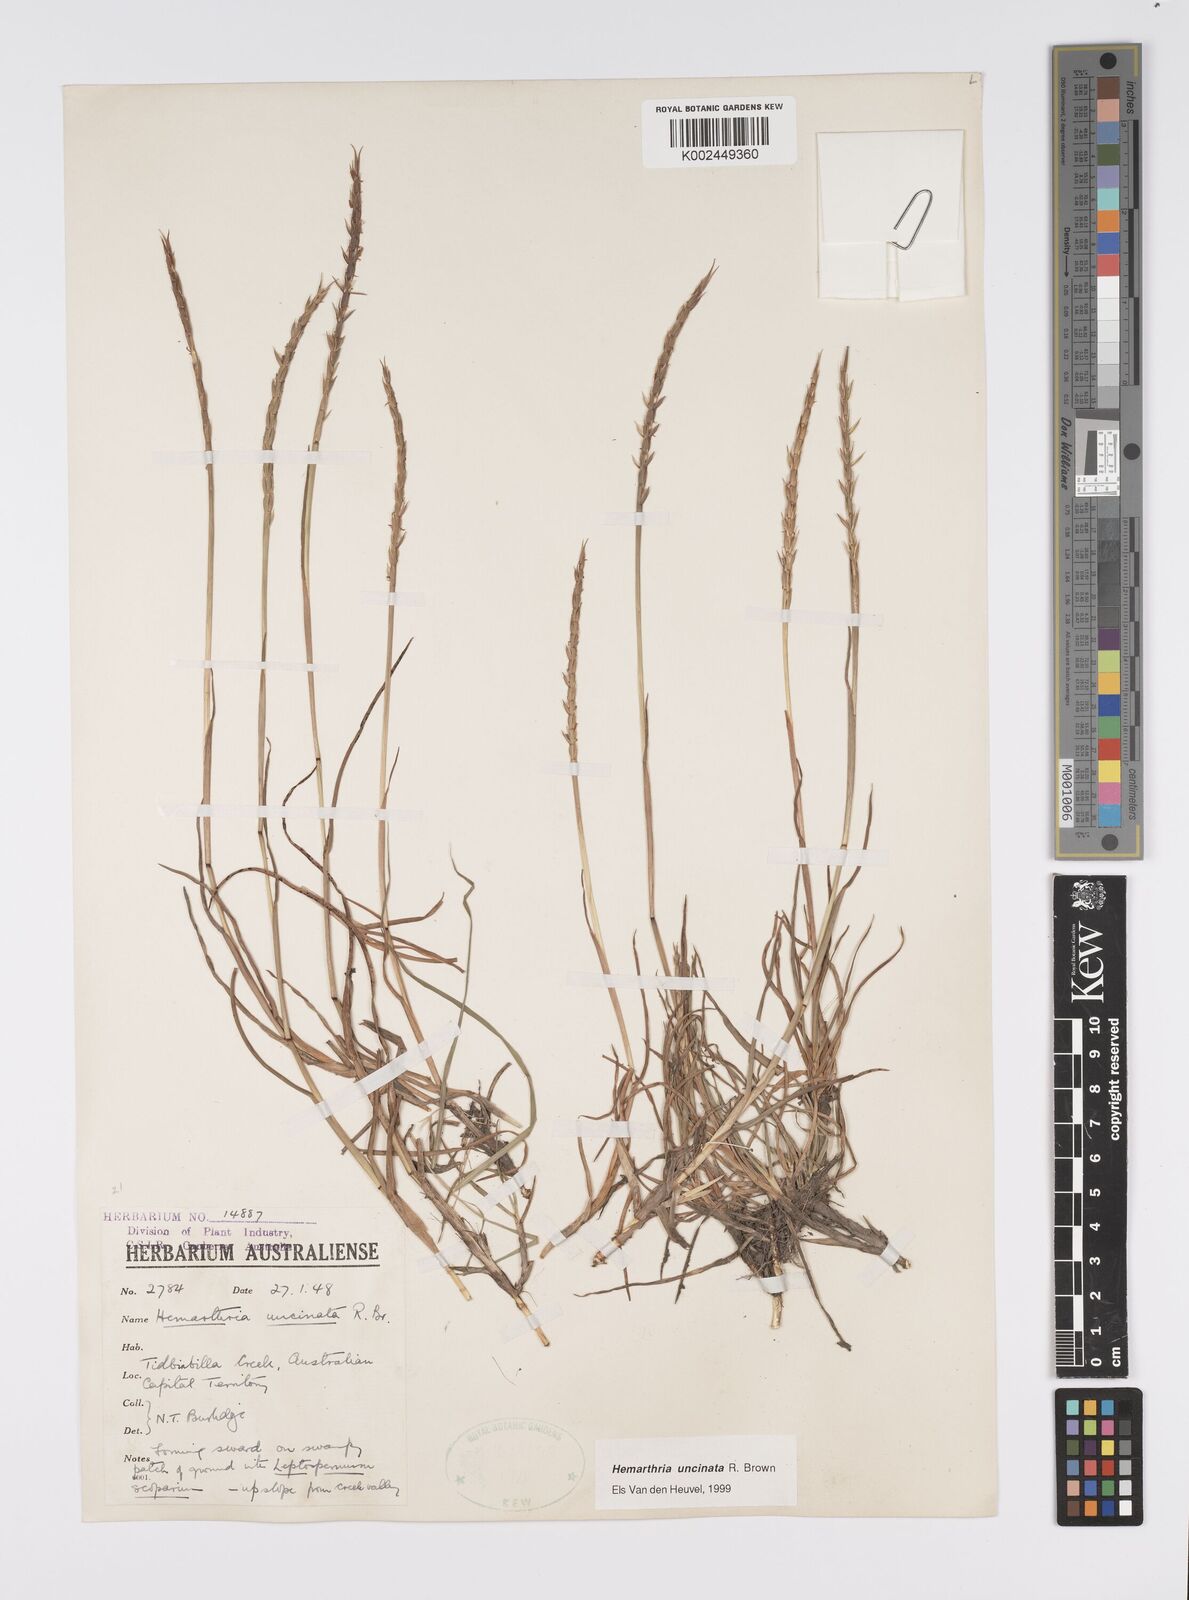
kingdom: Plantae
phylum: Tracheophyta
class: Liliopsida
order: Poales
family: Poaceae
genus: Hemarthria
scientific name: Hemarthria uncinata
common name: Matgrass
